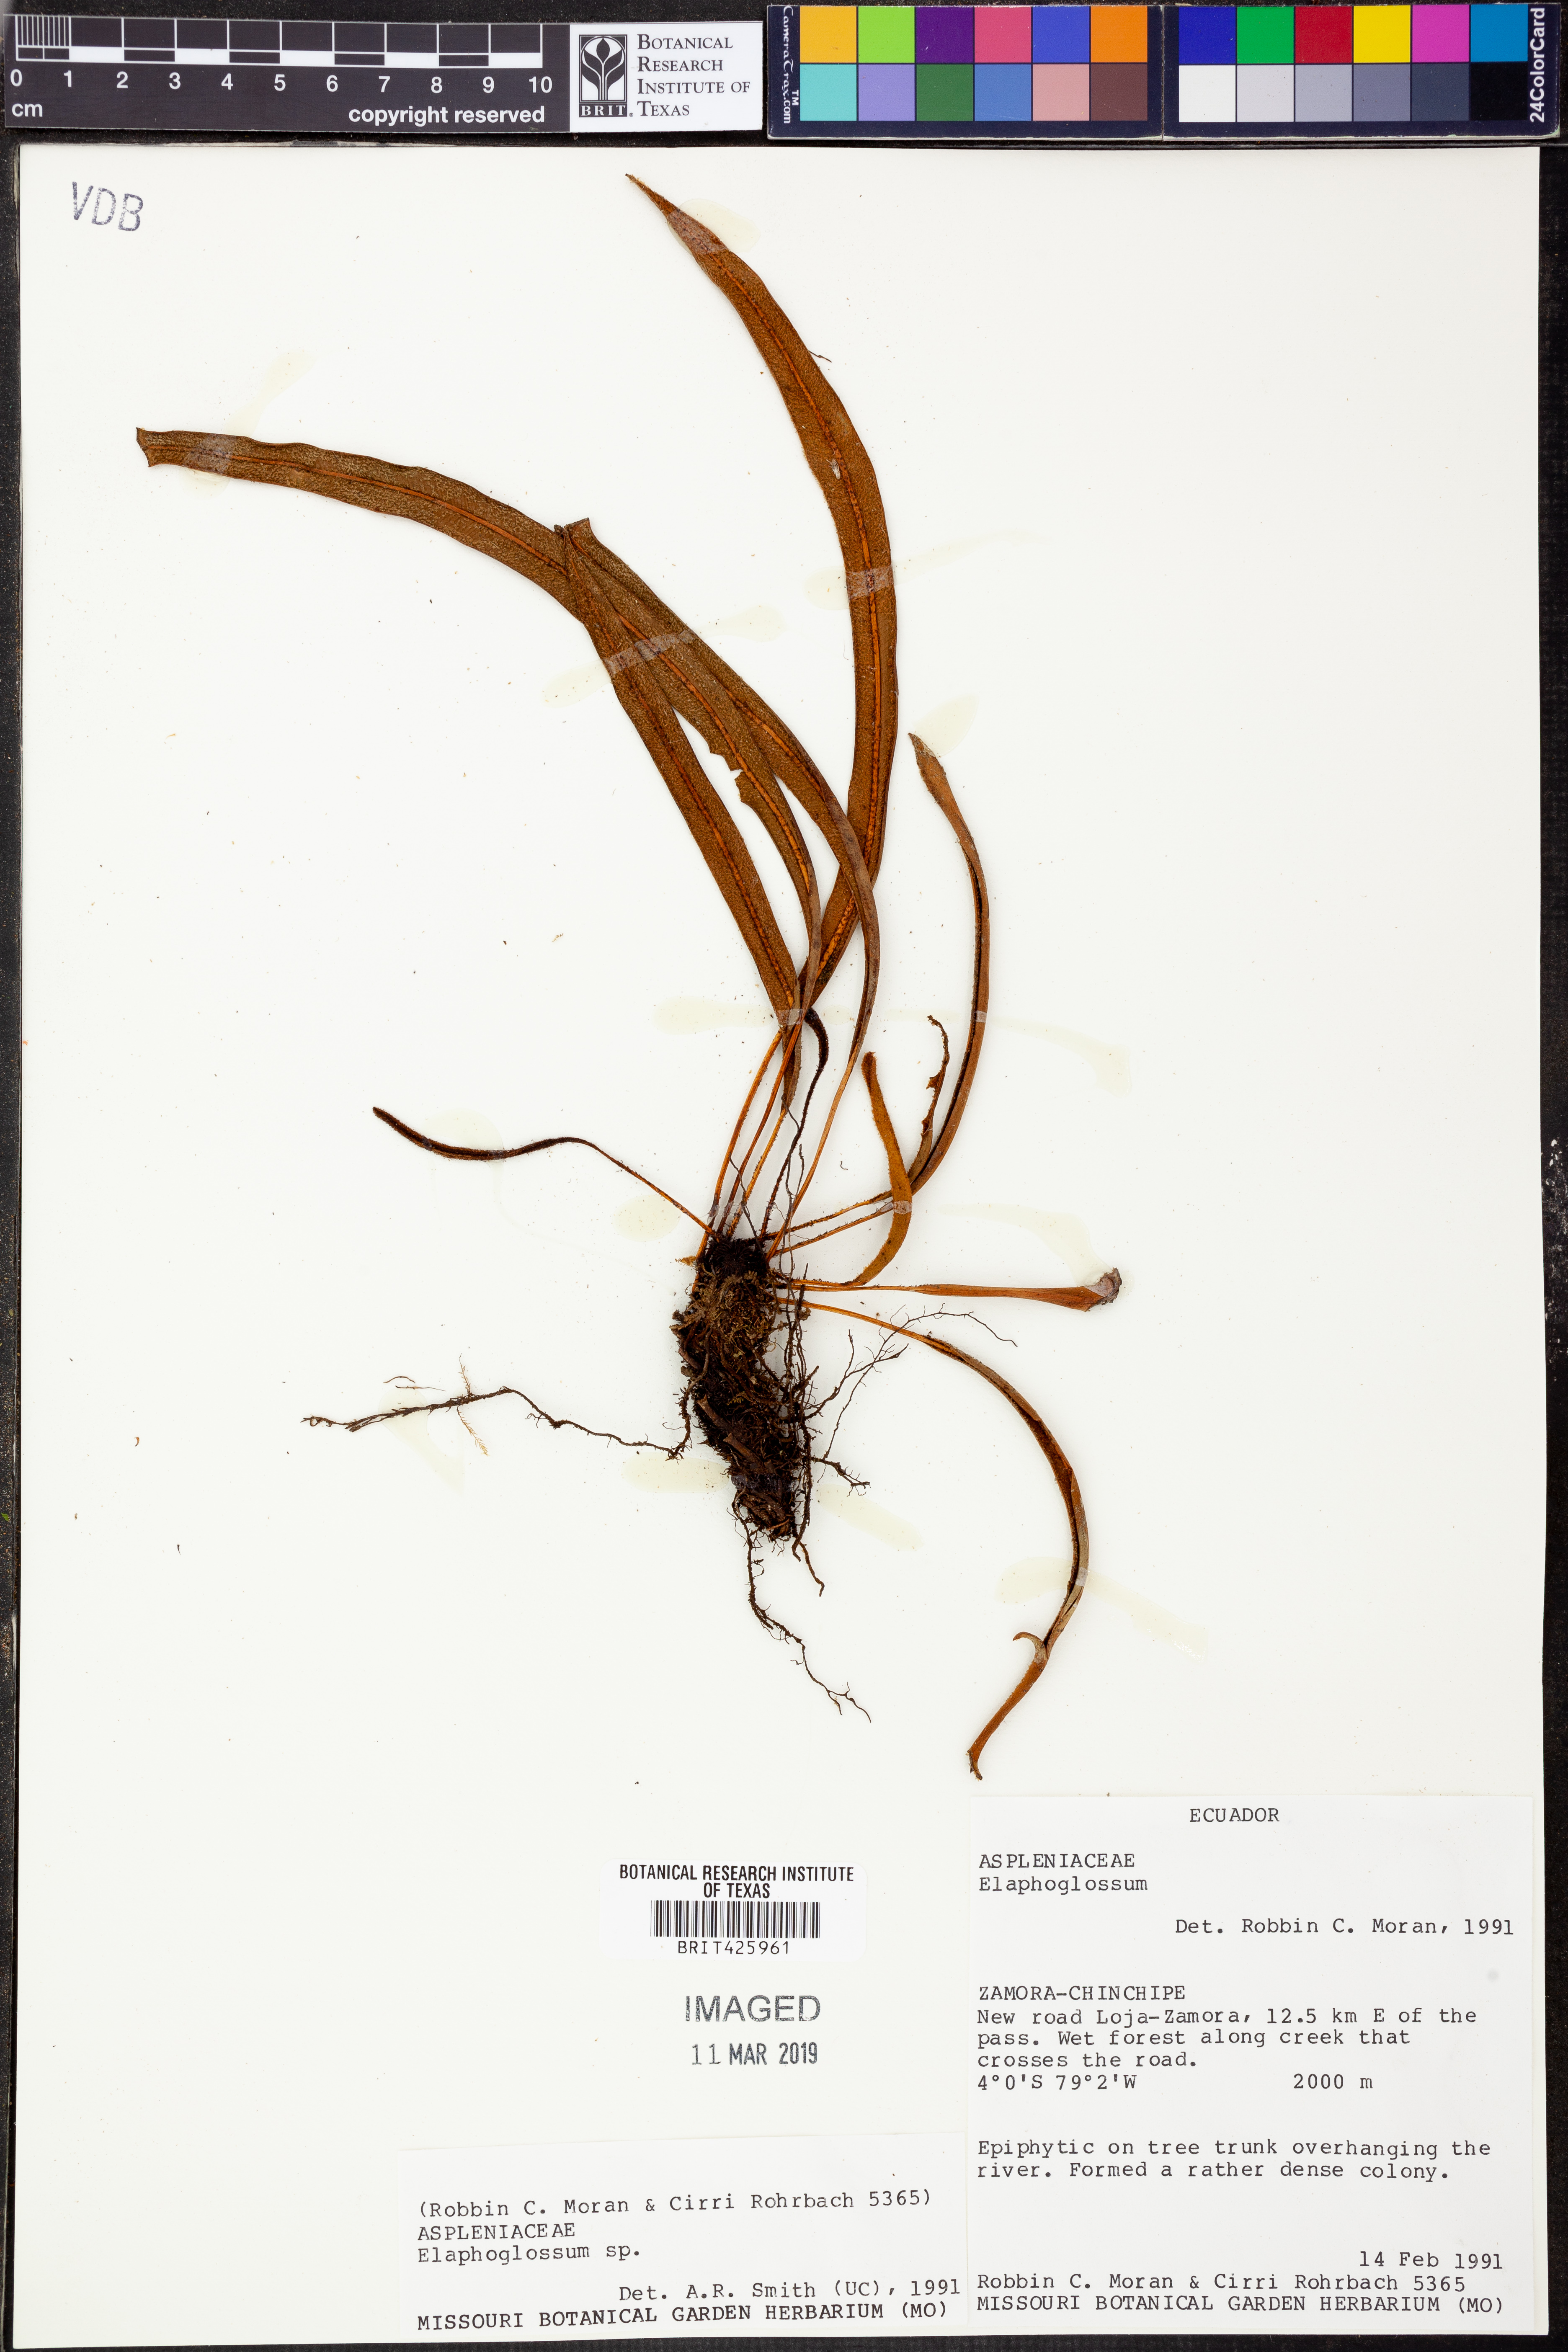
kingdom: Plantae
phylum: Tracheophyta
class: Polypodiopsida
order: Polypodiales
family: Dryopteridaceae
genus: Elaphoglossum
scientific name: Elaphoglossum
